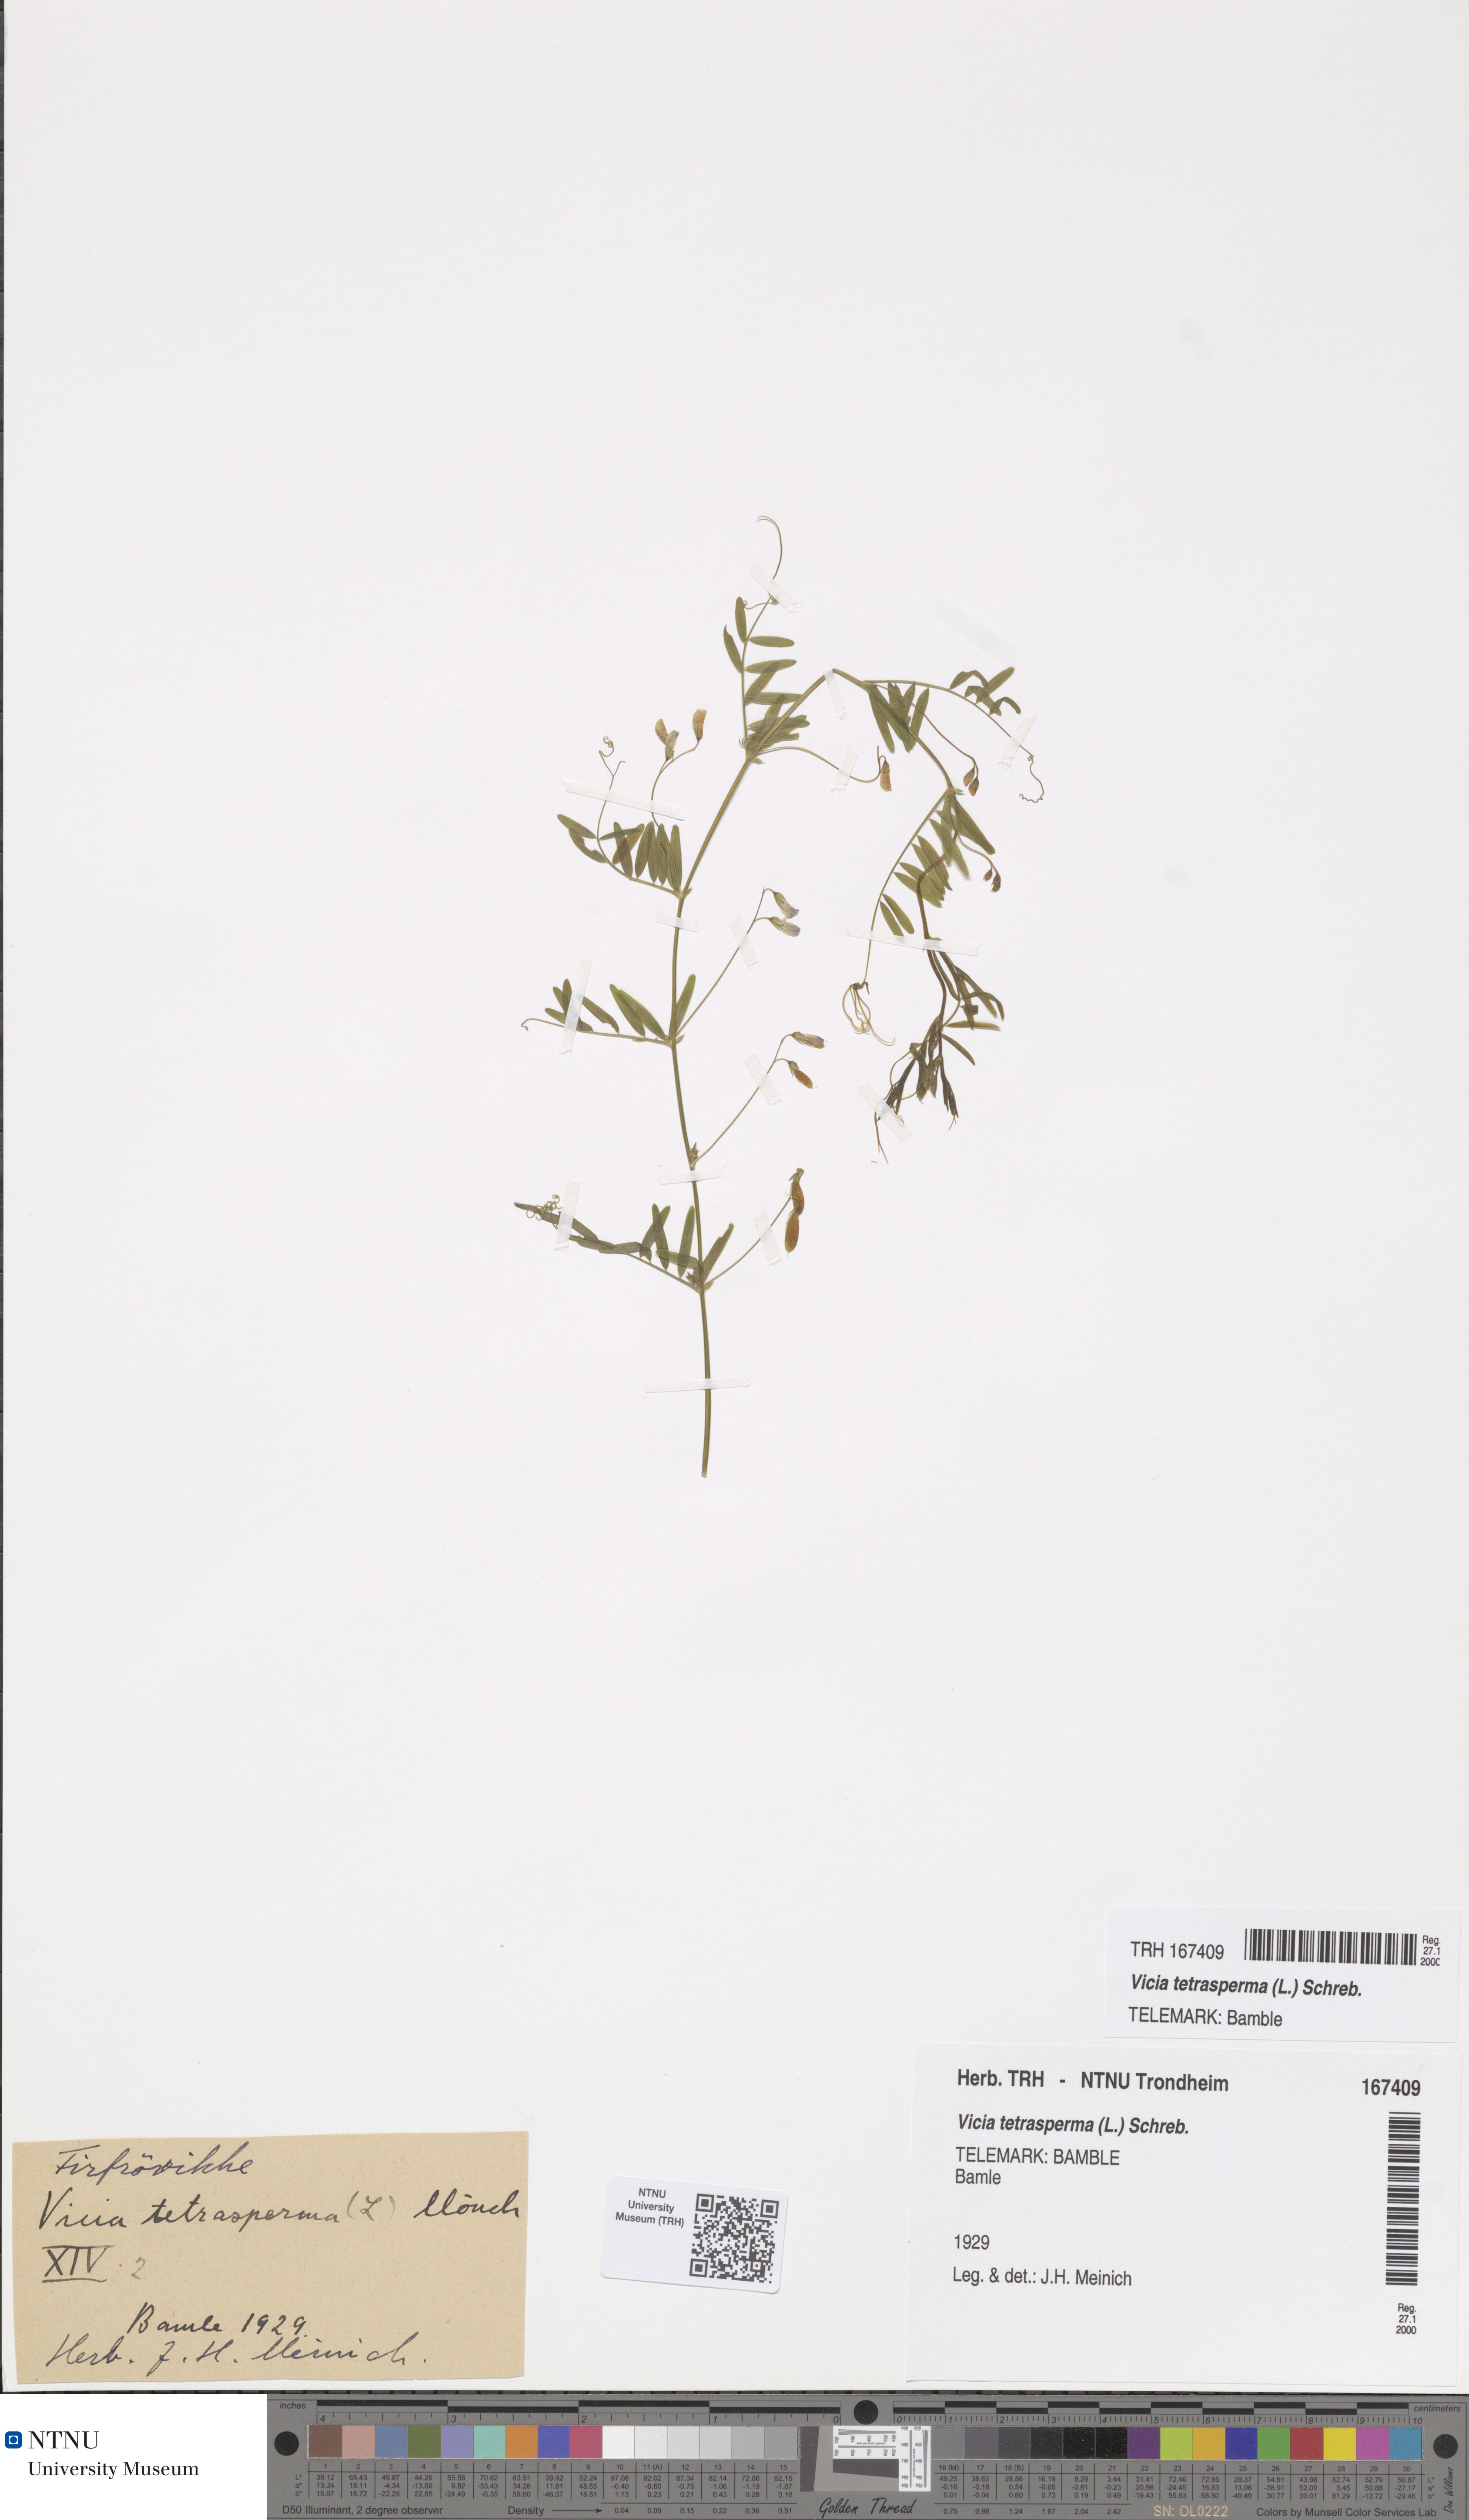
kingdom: Plantae
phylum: Tracheophyta
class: Magnoliopsida
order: Fabales
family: Fabaceae
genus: Vicia
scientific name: Vicia tetrasperma
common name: Smooth tare
